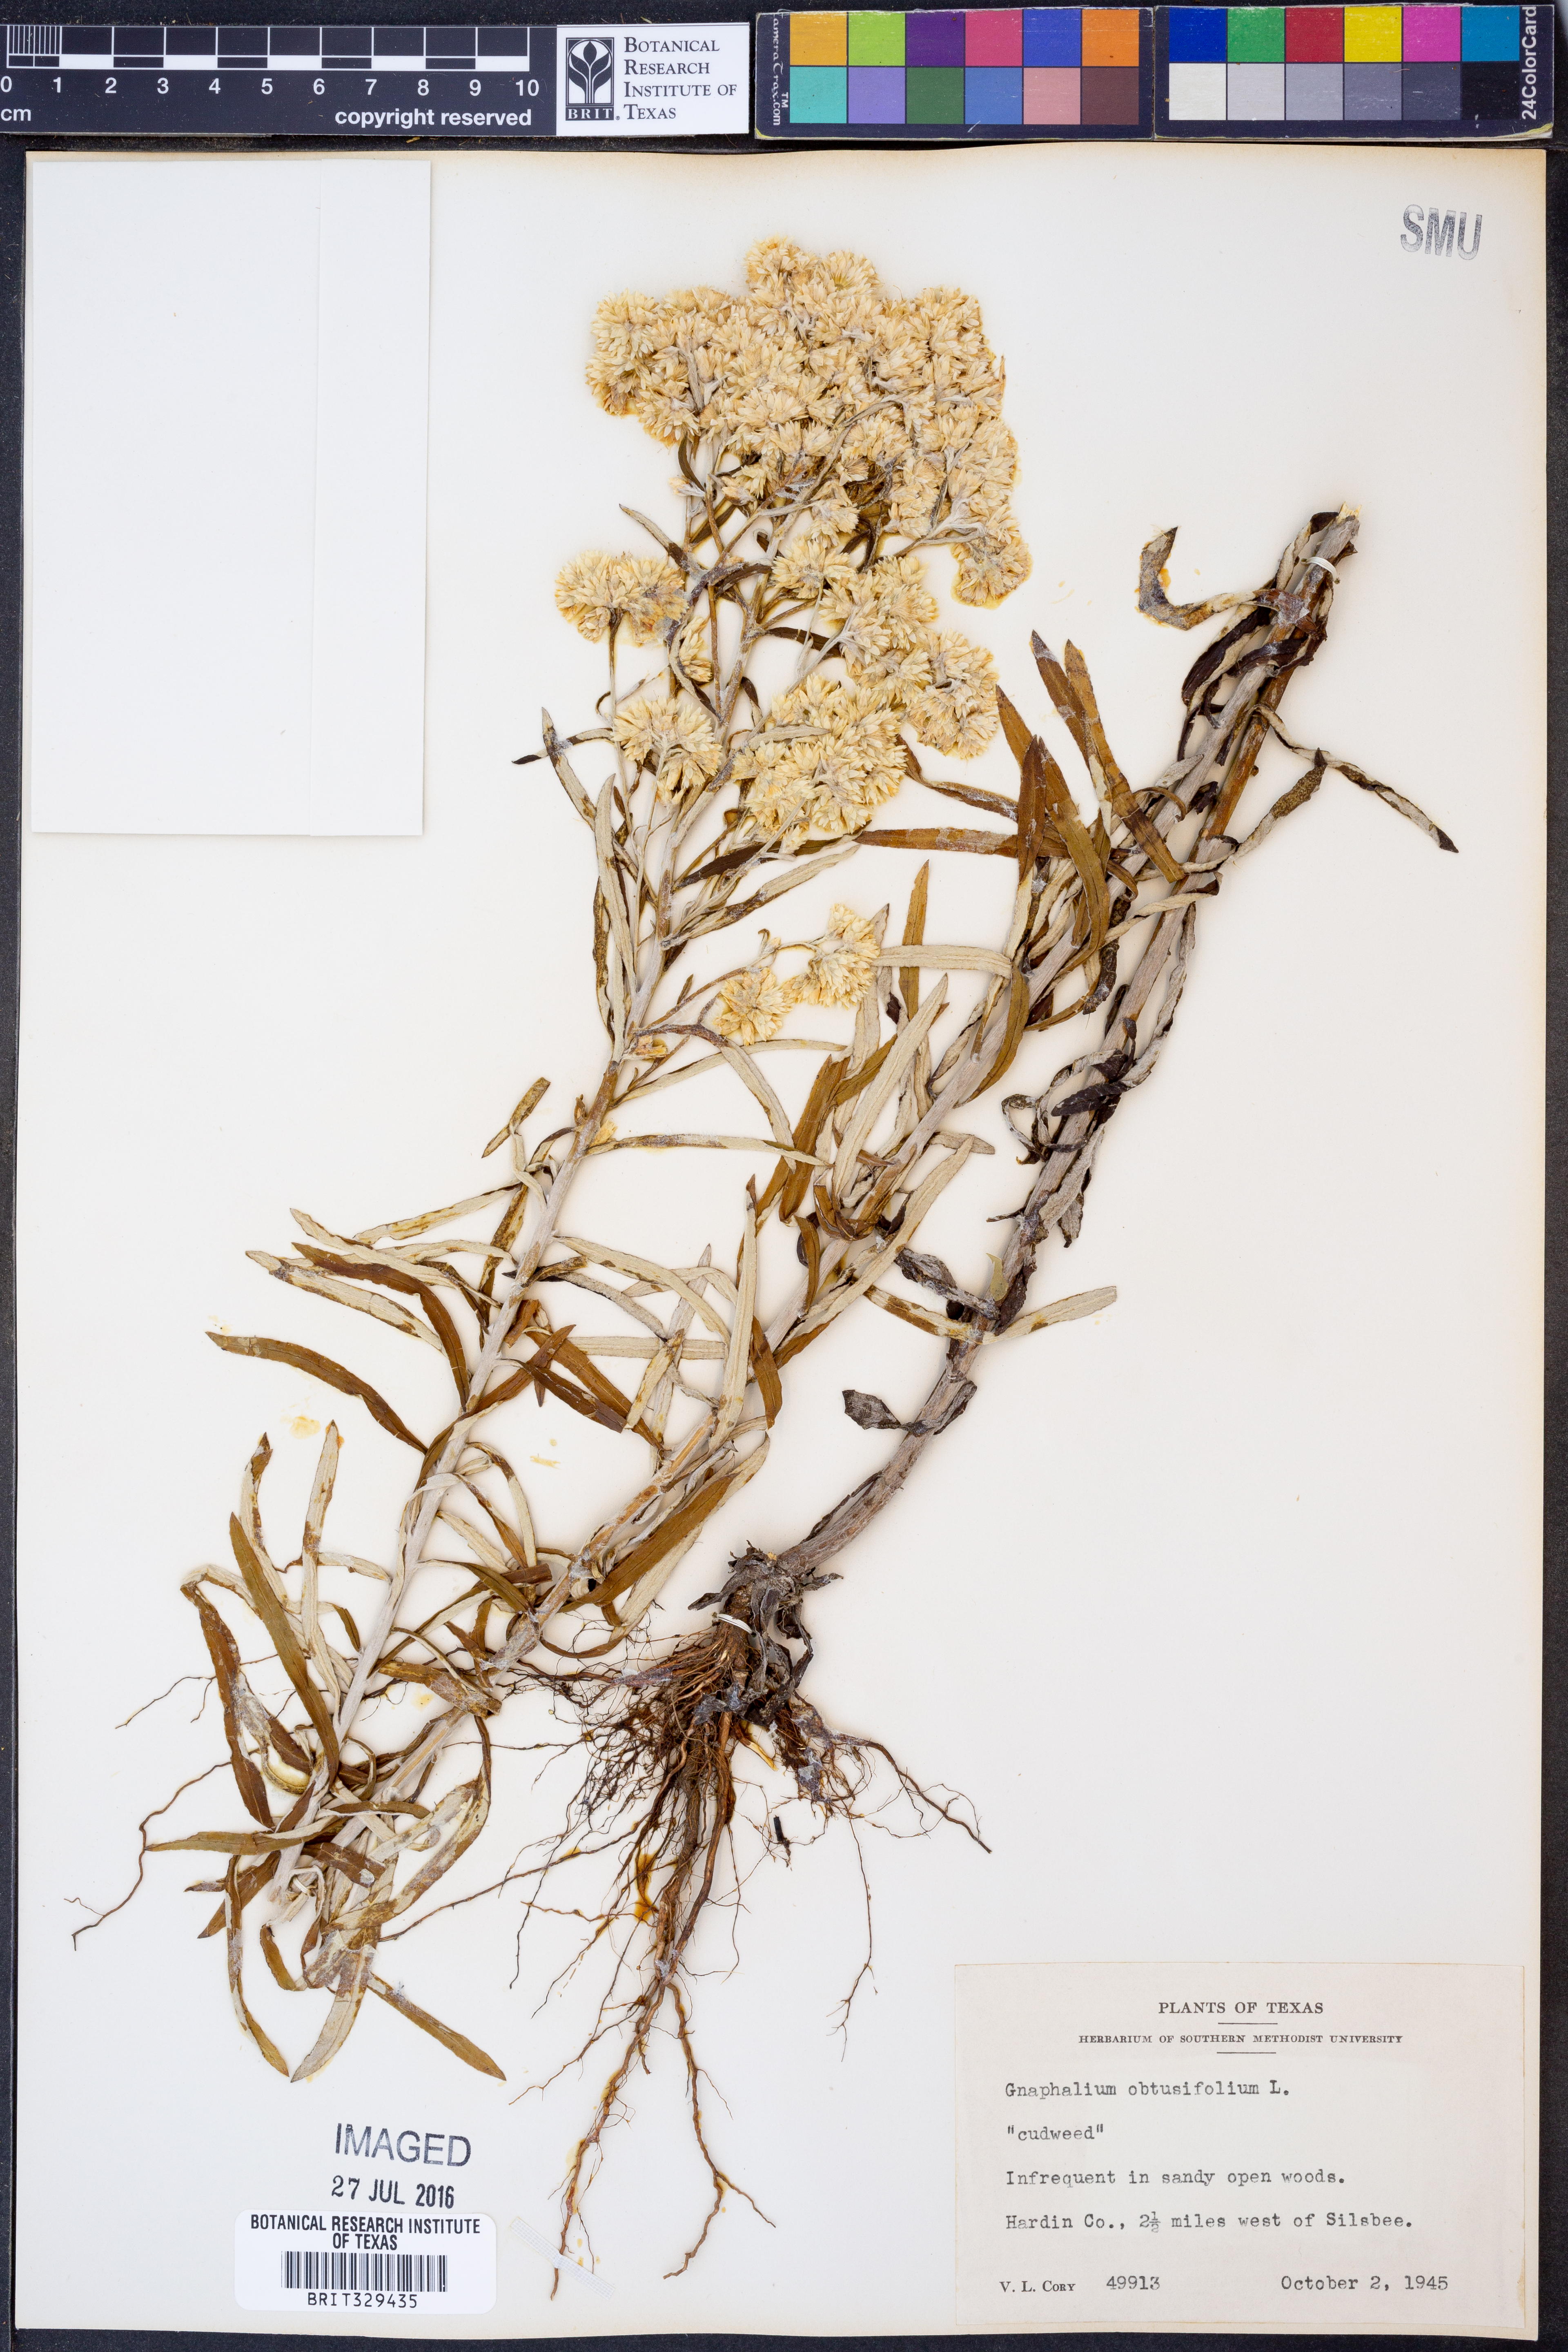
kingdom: Plantae
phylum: Tracheophyta
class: Magnoliopsida
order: Asterales
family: Asteraceae
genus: Pseudognaphalium
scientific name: Pseudognaphalium obtusifolium
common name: Eastern rabbit-tobacco
